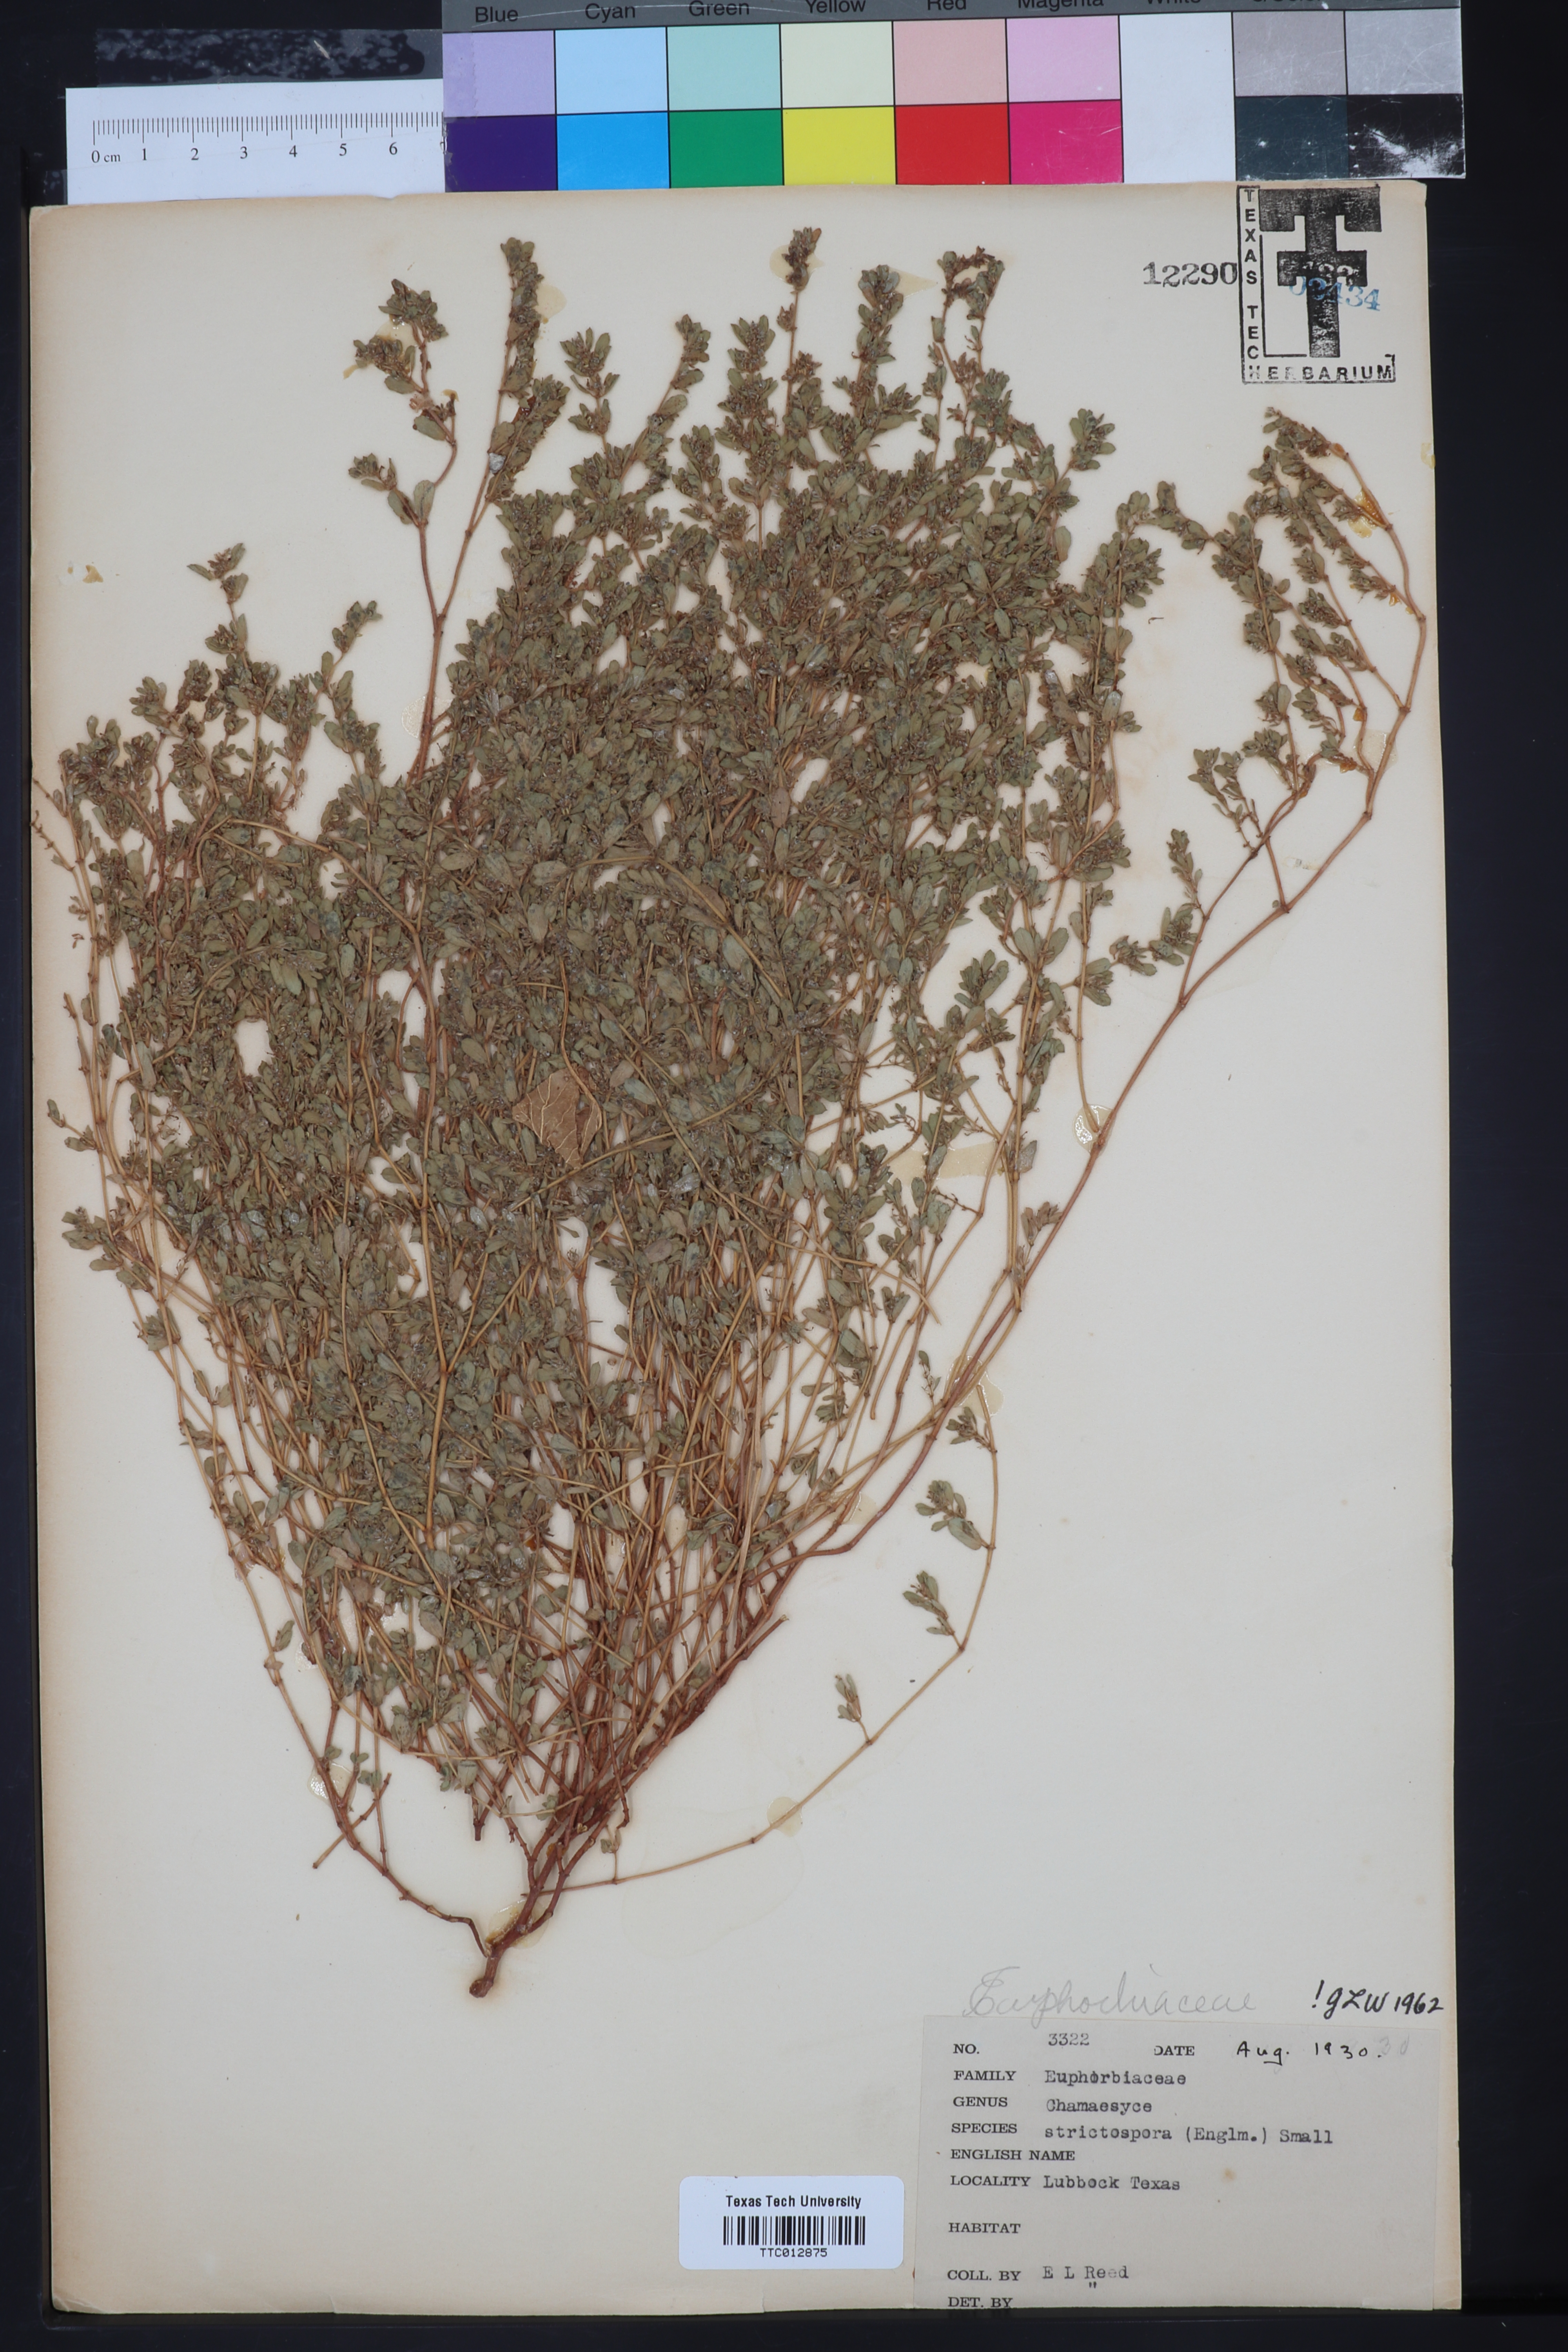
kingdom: Plantae
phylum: Tracheophyta
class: Magnoliopsida
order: Malpighiales
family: Euphorbiaceae
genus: Euphorbia
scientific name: Euphorbia
